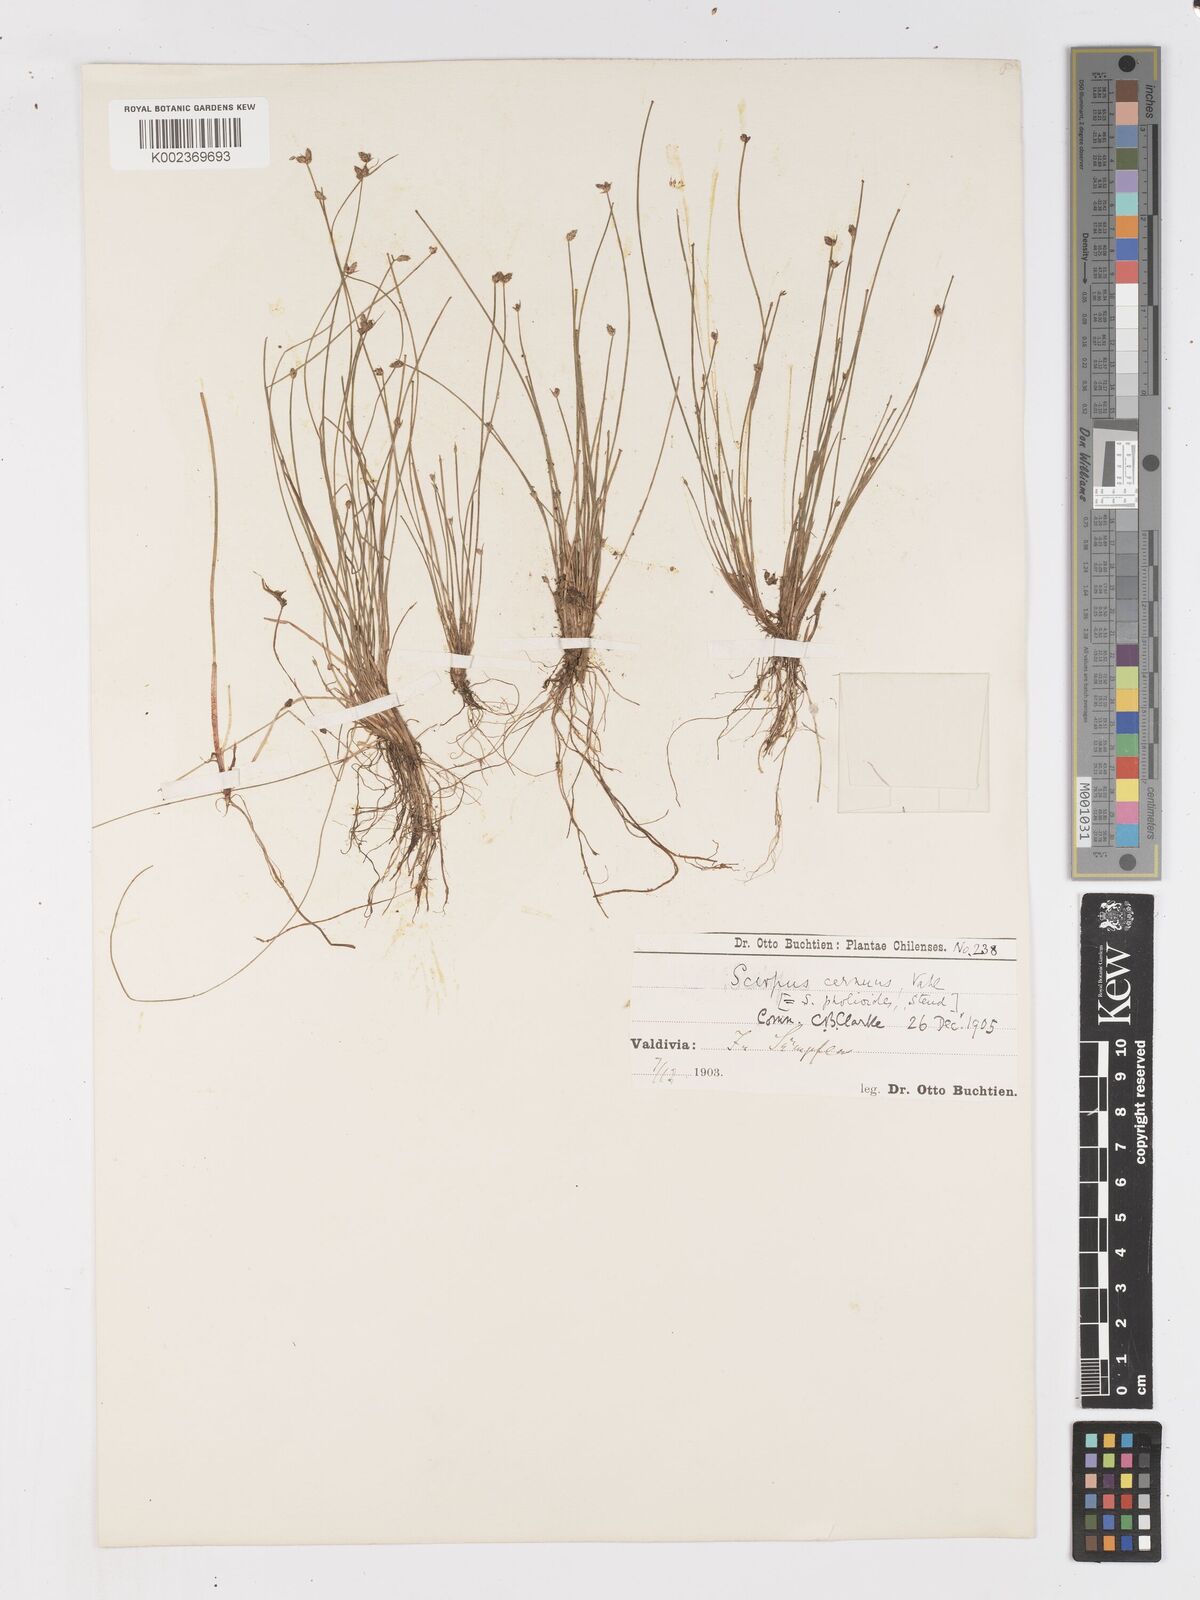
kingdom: Plantae
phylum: Tracheophyta
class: Liliopsida
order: Poales
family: Cyperaceae
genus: Isolepis
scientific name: Isolepis cernua
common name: Slender club-rush
